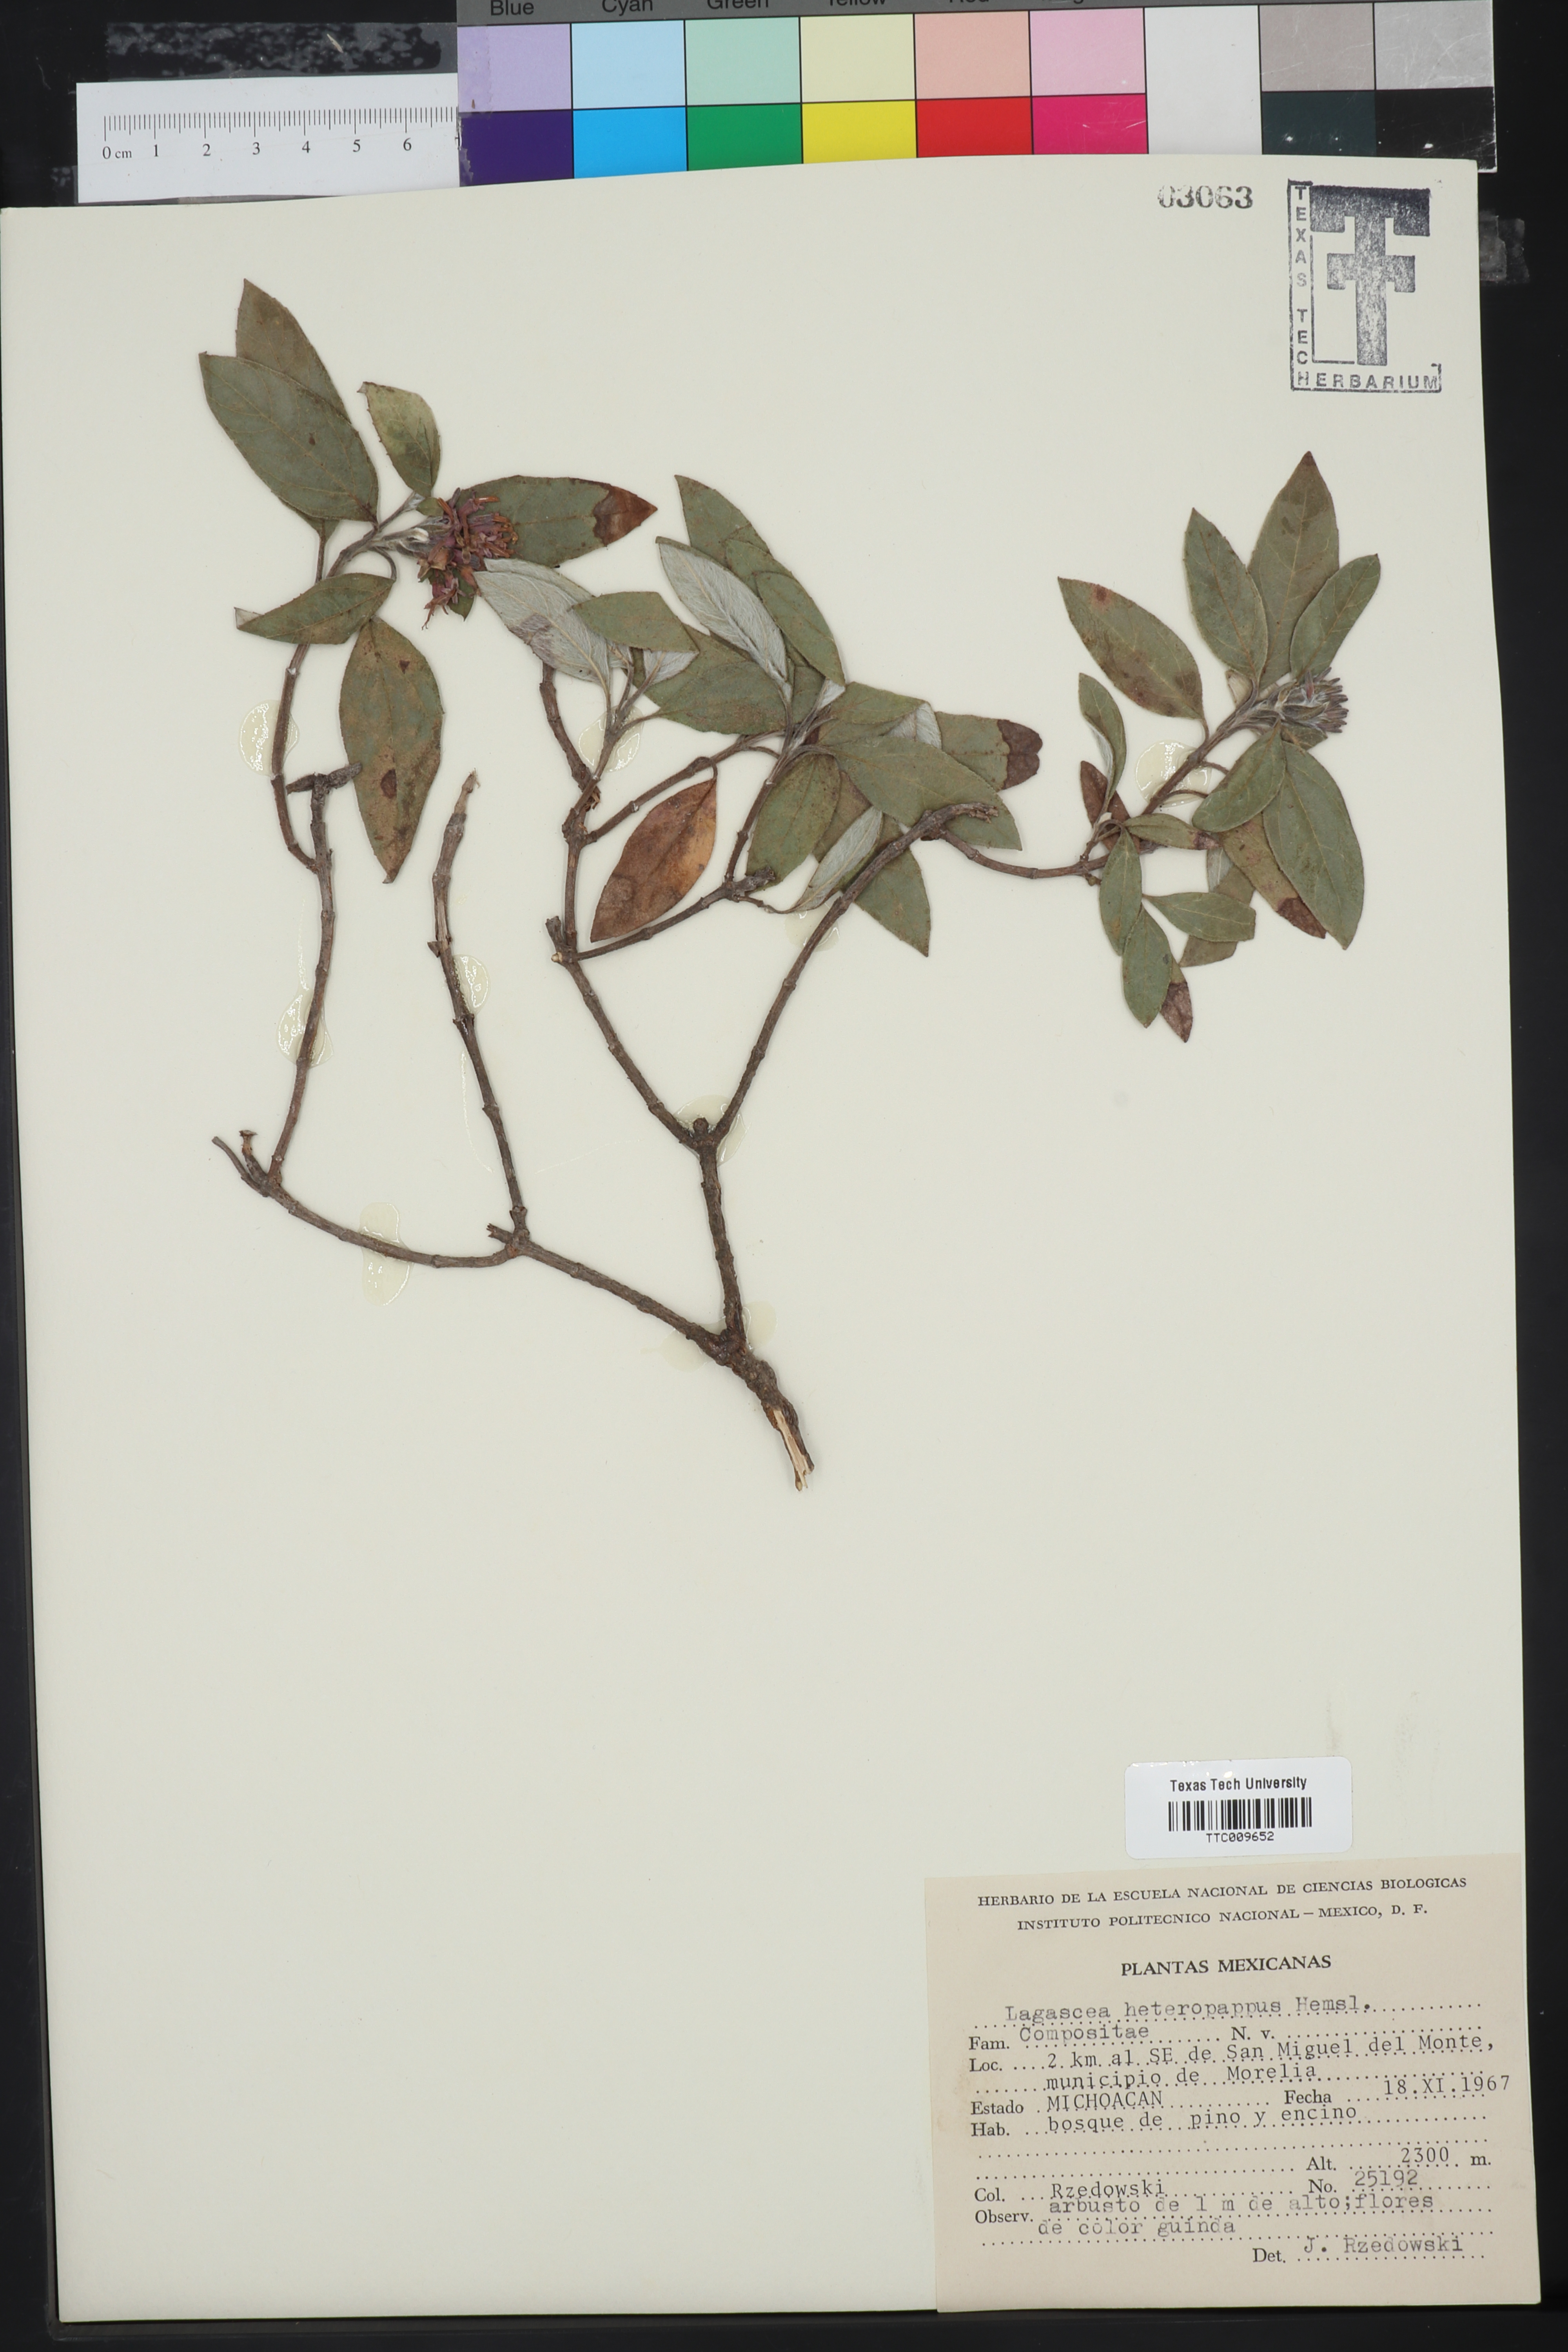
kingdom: Plantae
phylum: Tracheophyta
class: Magnoliopsida
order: Asterales
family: Asteraceae
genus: Lagascea
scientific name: Lagascea heteropappus
